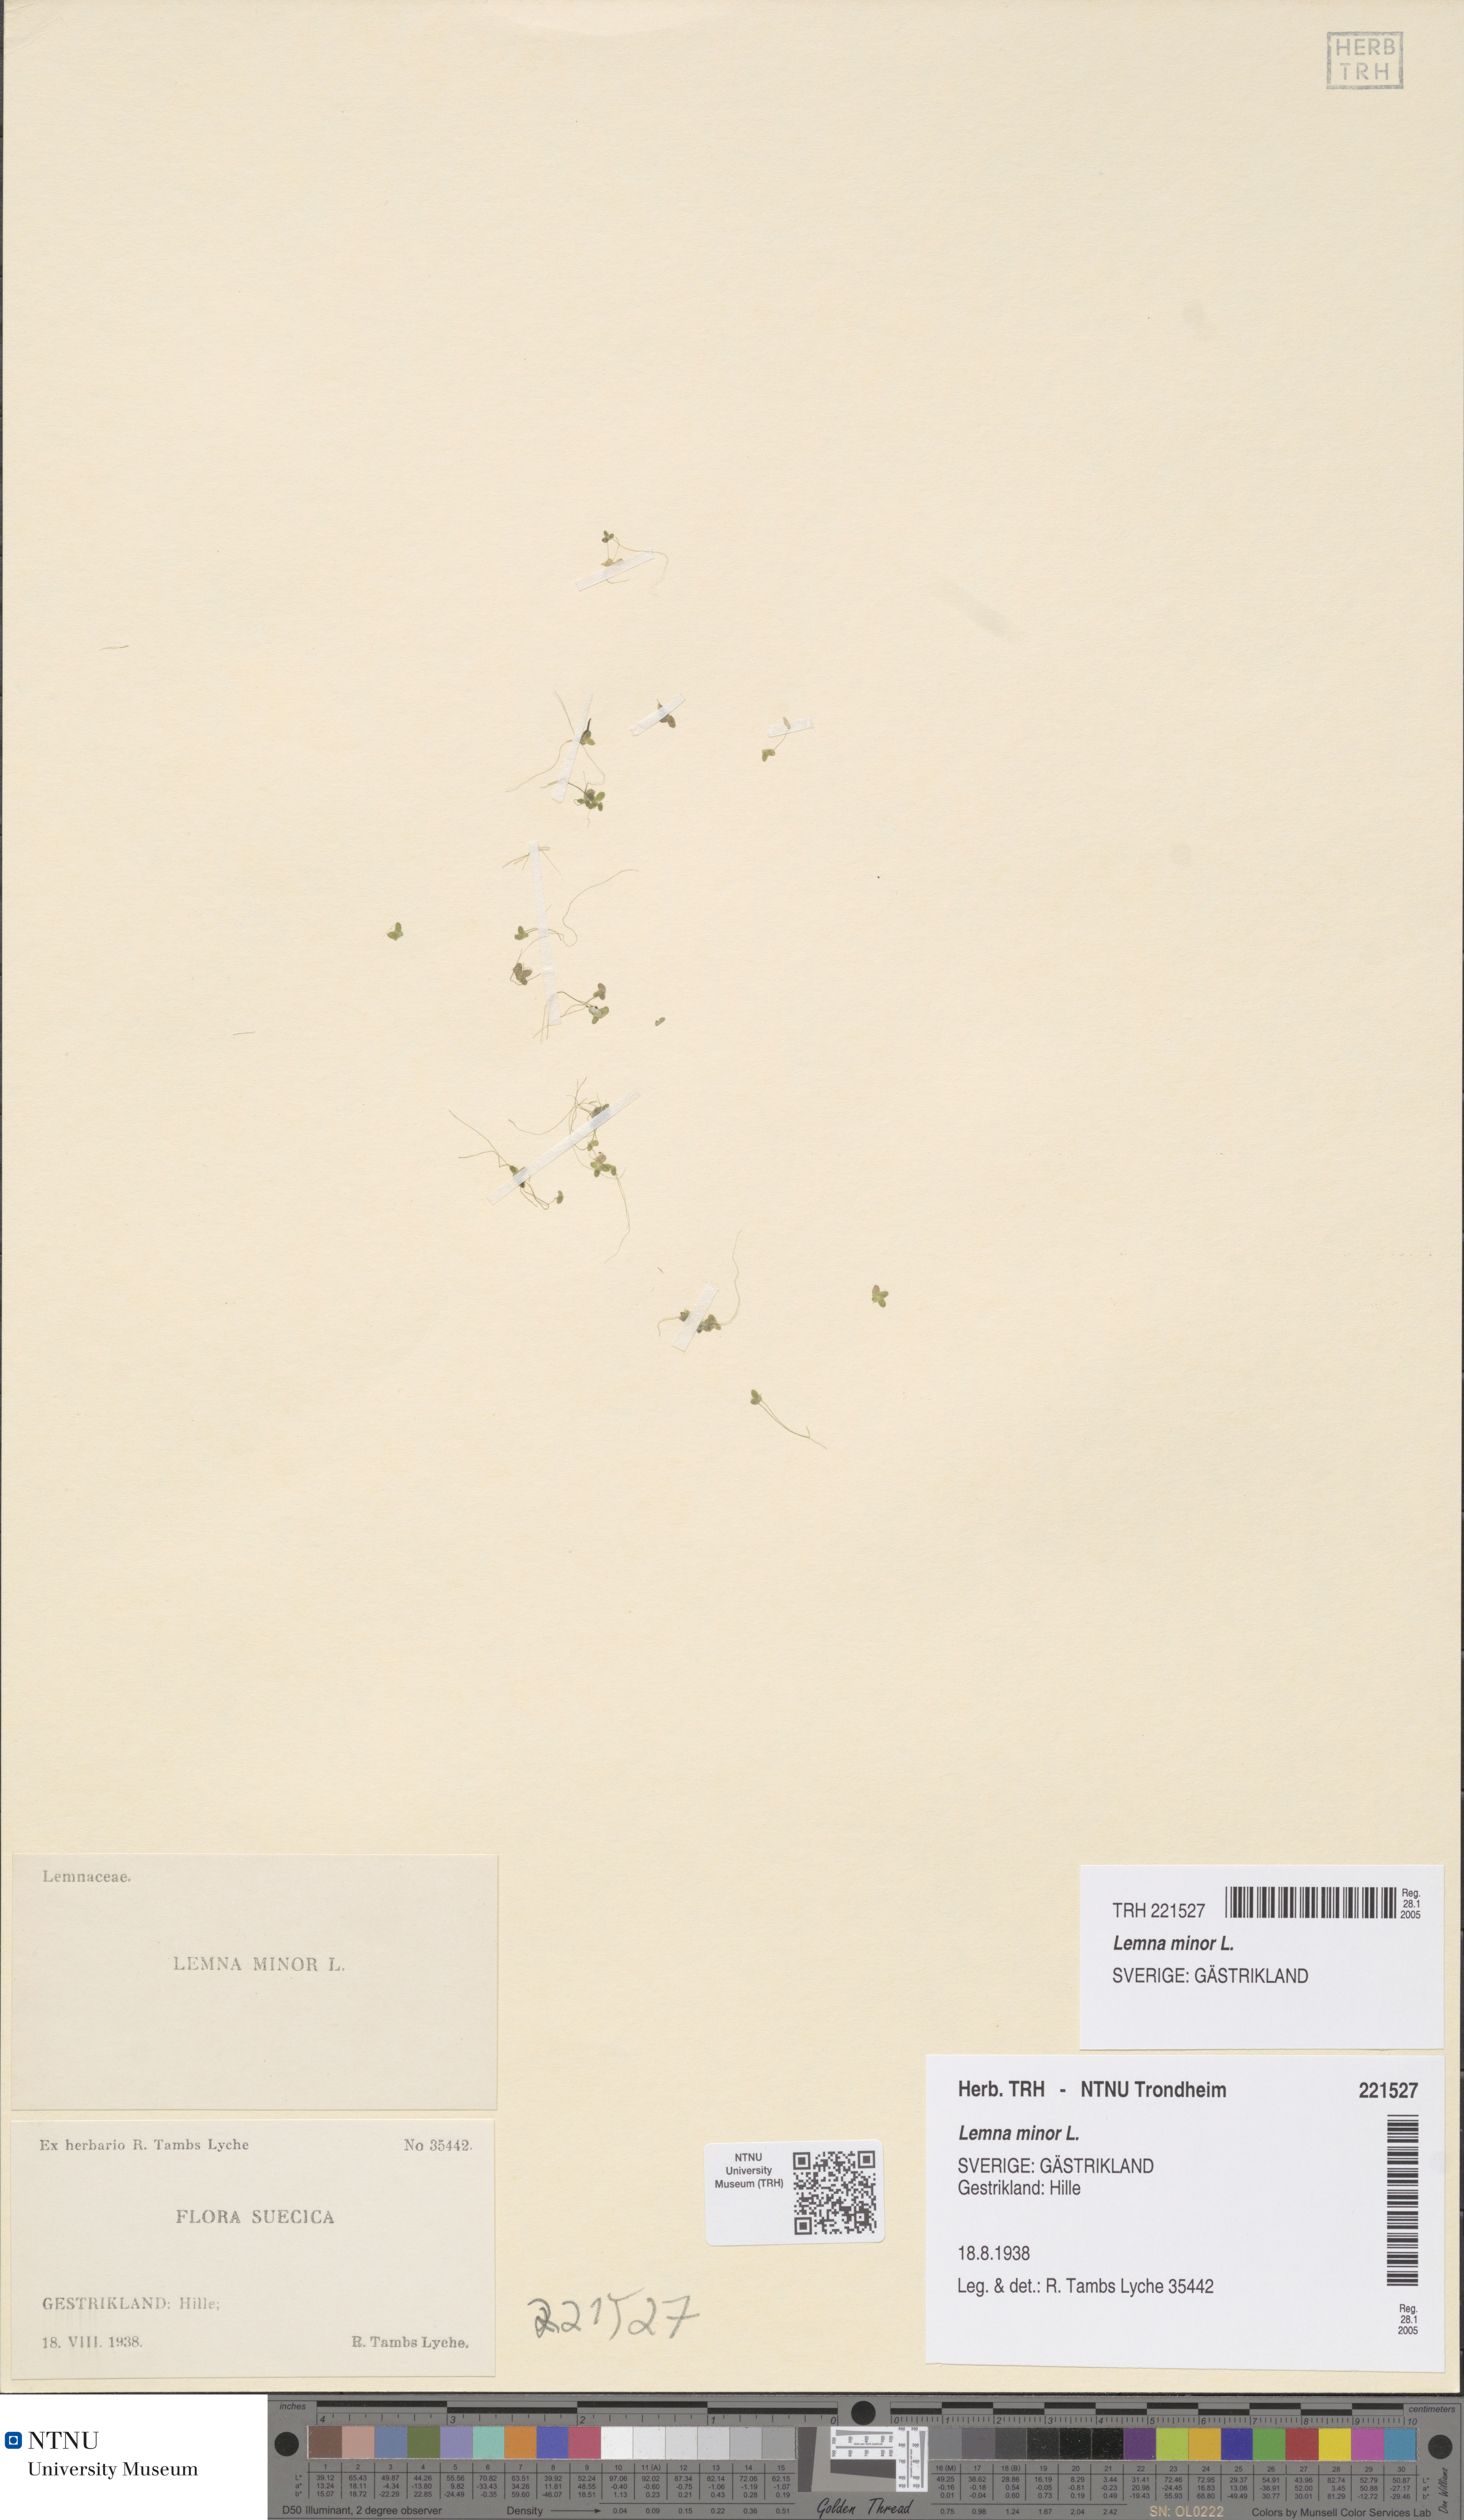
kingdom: Plantae
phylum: Tracheophyta
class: Liliopsida
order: Alismatales
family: Araceae
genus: Lemna
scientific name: Lemna minor
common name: Common duckweed
